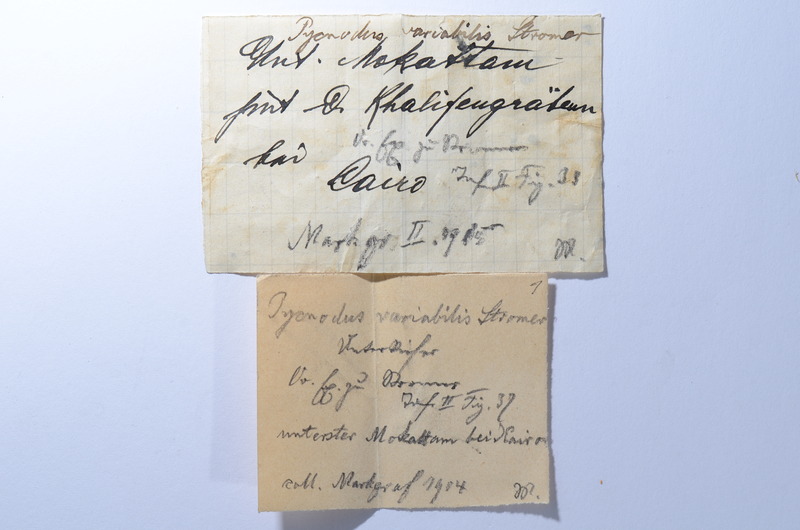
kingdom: Animalia
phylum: Chordata
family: Pycnodontidae
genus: Pycnodus
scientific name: Pycnodus variabilis
